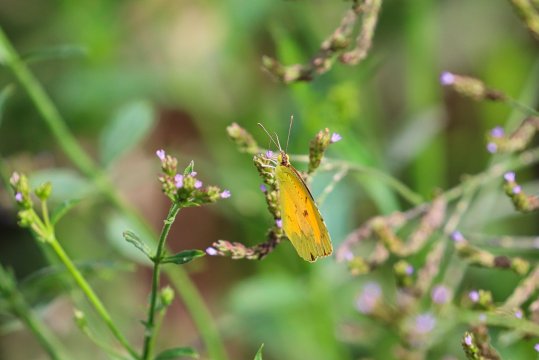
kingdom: Animalia
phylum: Arthropoda
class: Insecta
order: Lepidoptera
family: Pieridae
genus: Abaeis
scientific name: Abaeis nicippe
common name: Sleepy Orange
